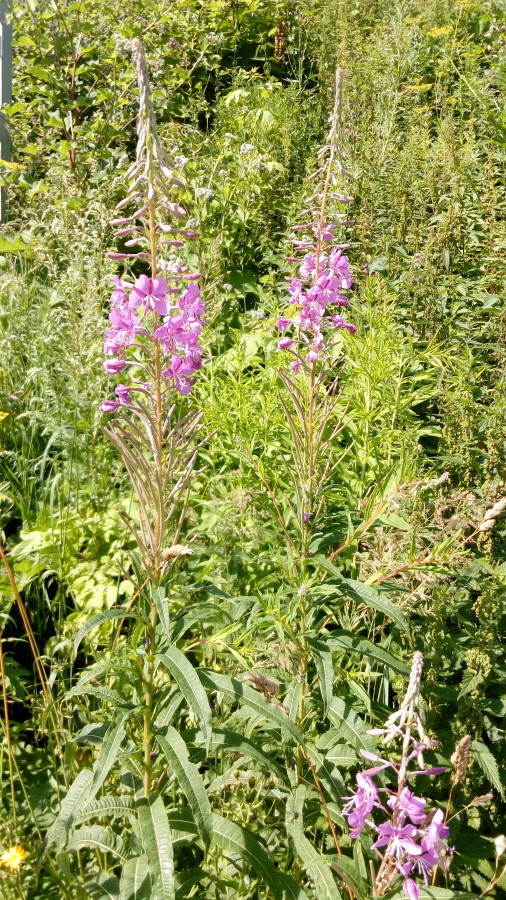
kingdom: Plantae
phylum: Tracheophyta
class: Magnoliopsida
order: Myrtales
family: Onagraceae
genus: Chamaenerion
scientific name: Chamaenerion angustifolium
